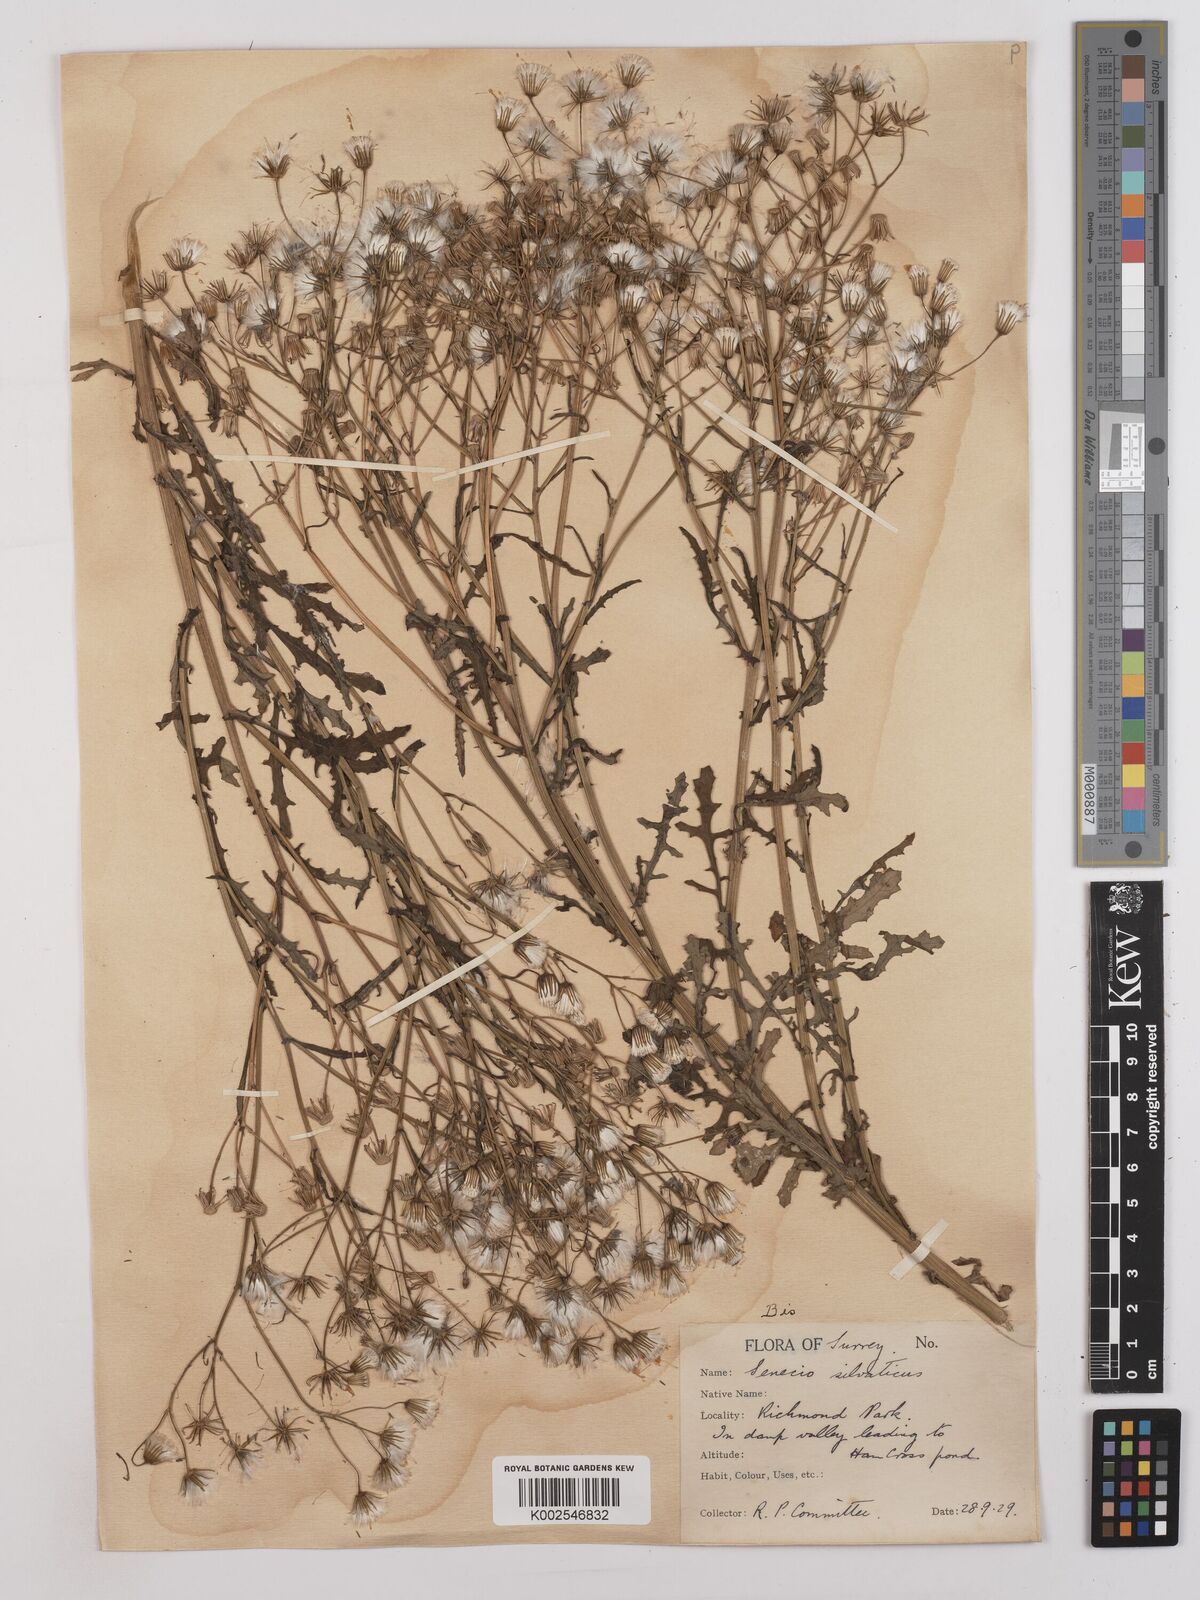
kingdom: Plantae
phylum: Tracheophyta
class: Magnoliopsida
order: Asterales
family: Asteraceae
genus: Senecio
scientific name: Senecio sylvaticus
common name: Woodland ragwort
